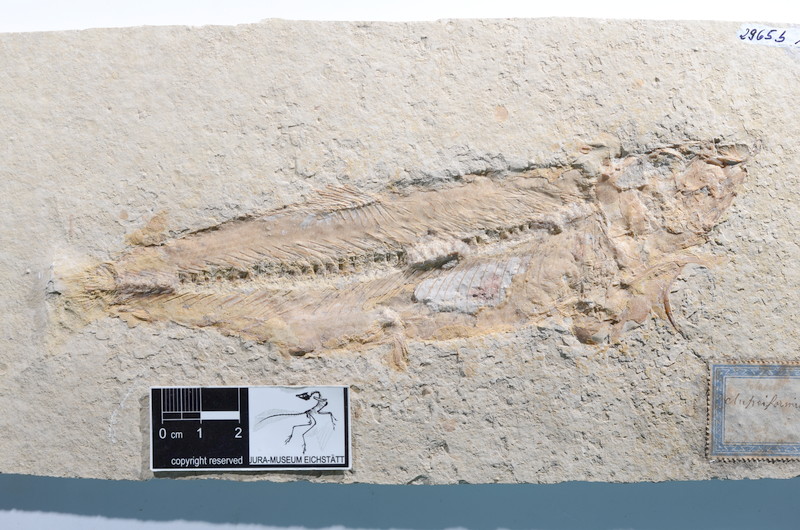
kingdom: Animalia
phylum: Chordata
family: Ascalaboidae
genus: Tharsis
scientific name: Tharsis dubius
